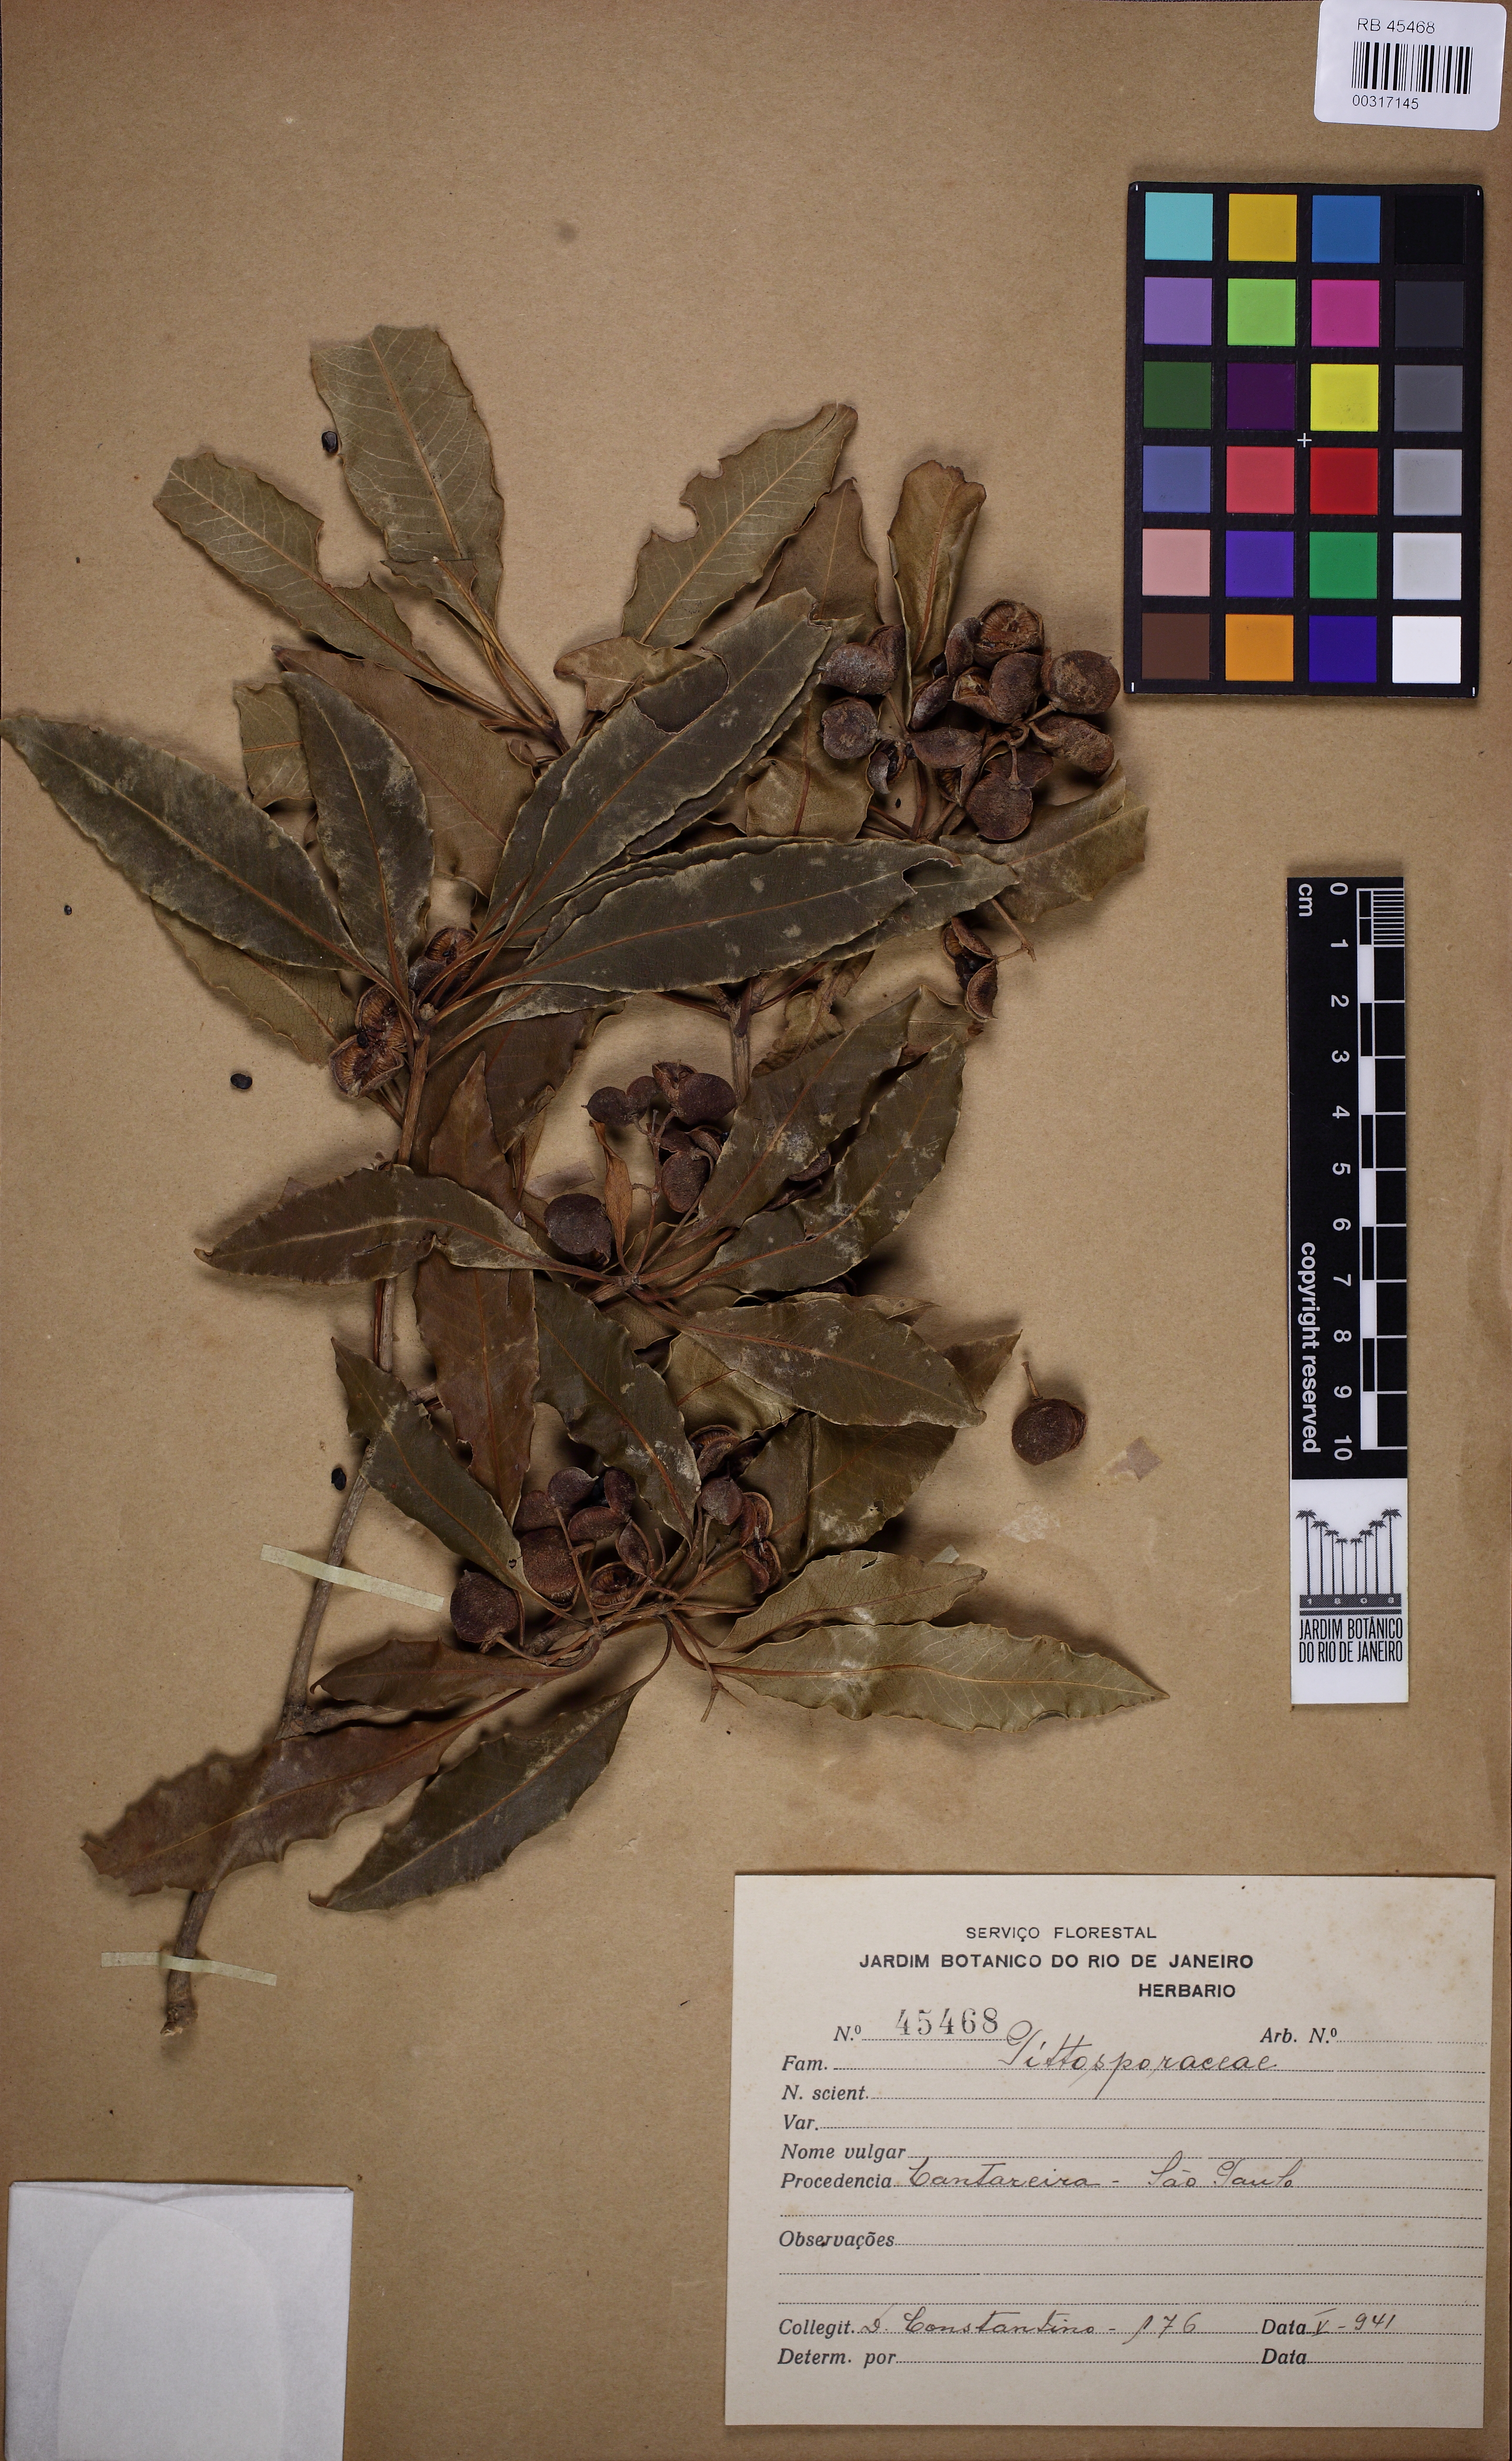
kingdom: Plantae
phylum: Tracheophyta
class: Magnoliopsida
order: Apiales
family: Pittosporaceae
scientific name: Pittosporaceae
